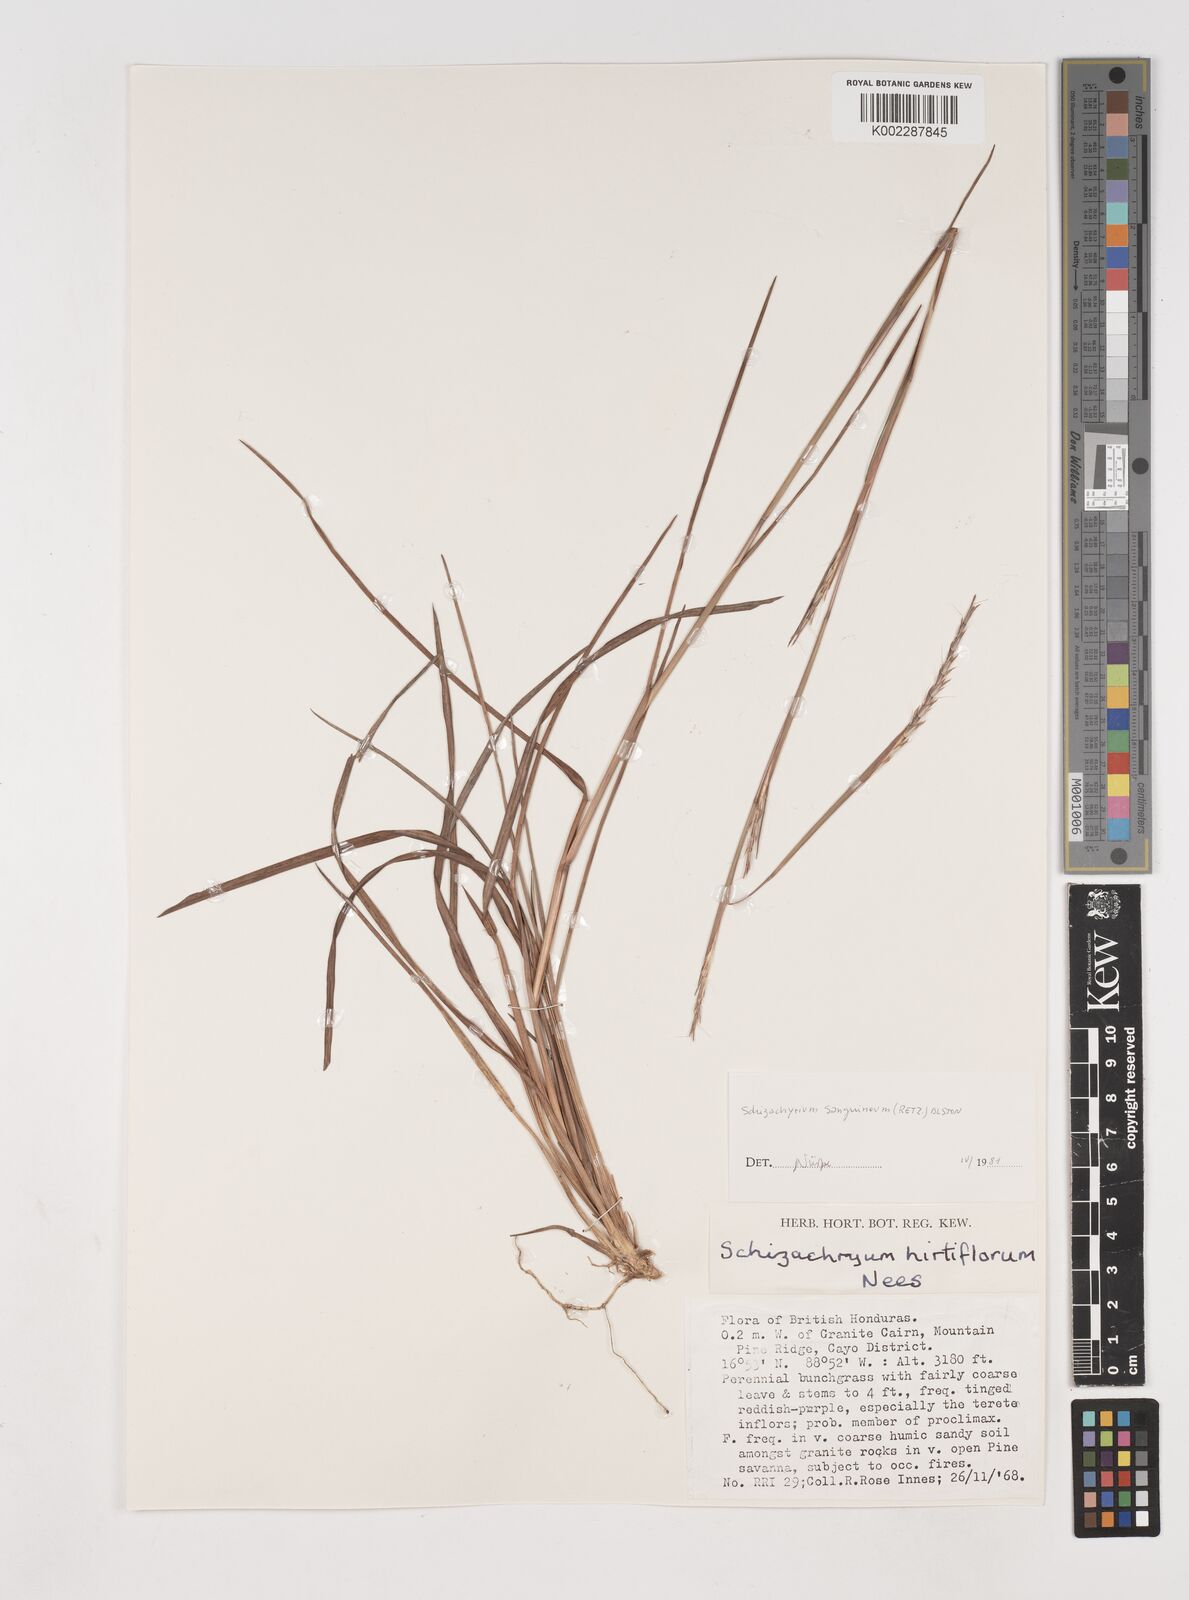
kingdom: Plantae
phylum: Tracheophyta
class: Liliopsida
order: Poales
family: Poaceae
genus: Schizachyrium
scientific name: Schizachyrium sanguineum
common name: Crimson bluestem
